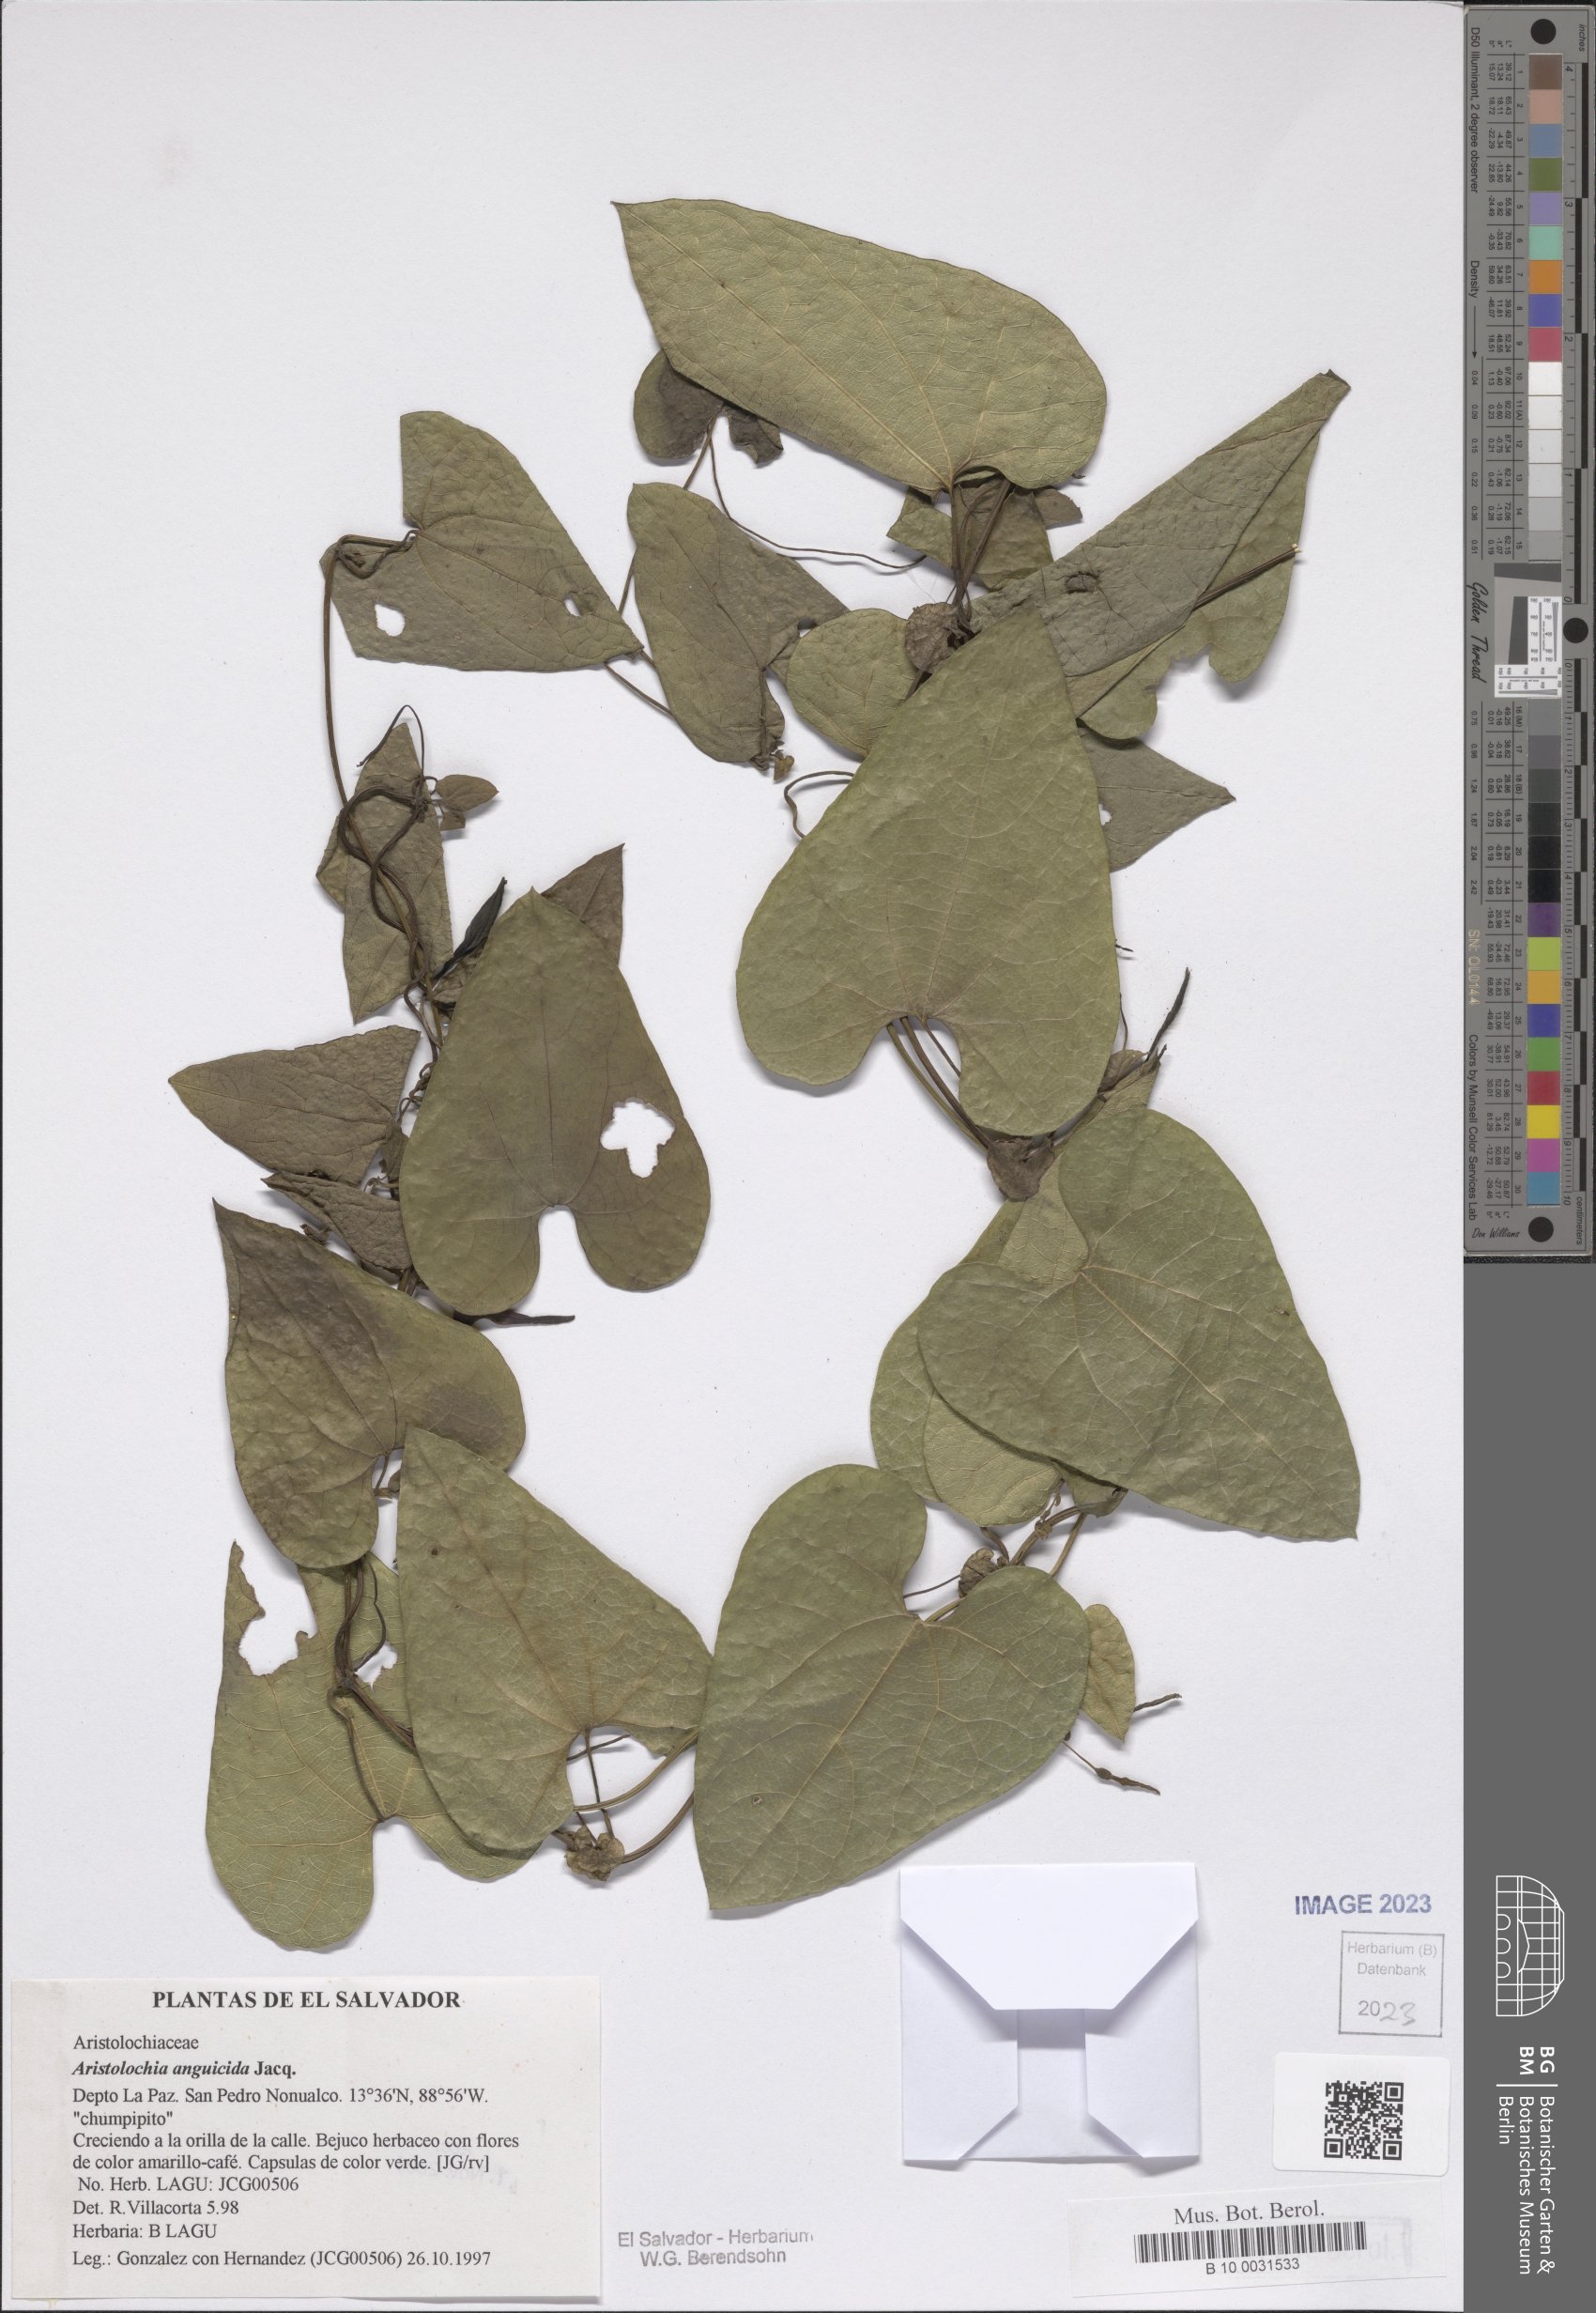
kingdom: Plantae
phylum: Tracheophyta
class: Magnoliopsida
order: Piperales
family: Aristolochiaceae
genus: Aristolochia
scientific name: Aristolochia anguicida
